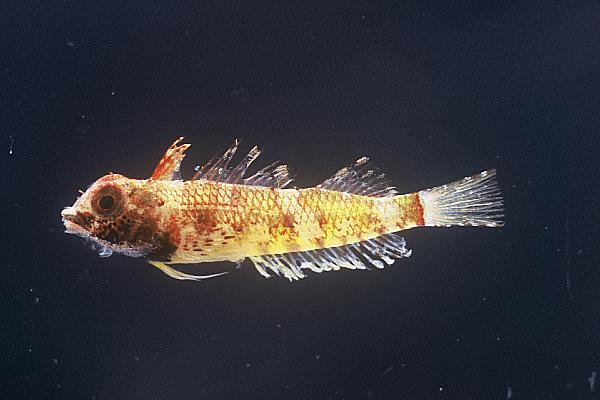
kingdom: Animalia
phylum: Chordata
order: Perciformes
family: Tripterygiidae
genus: Enneapterygius
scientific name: Enneapterygius ventermaculus
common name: Blotched triplefin
